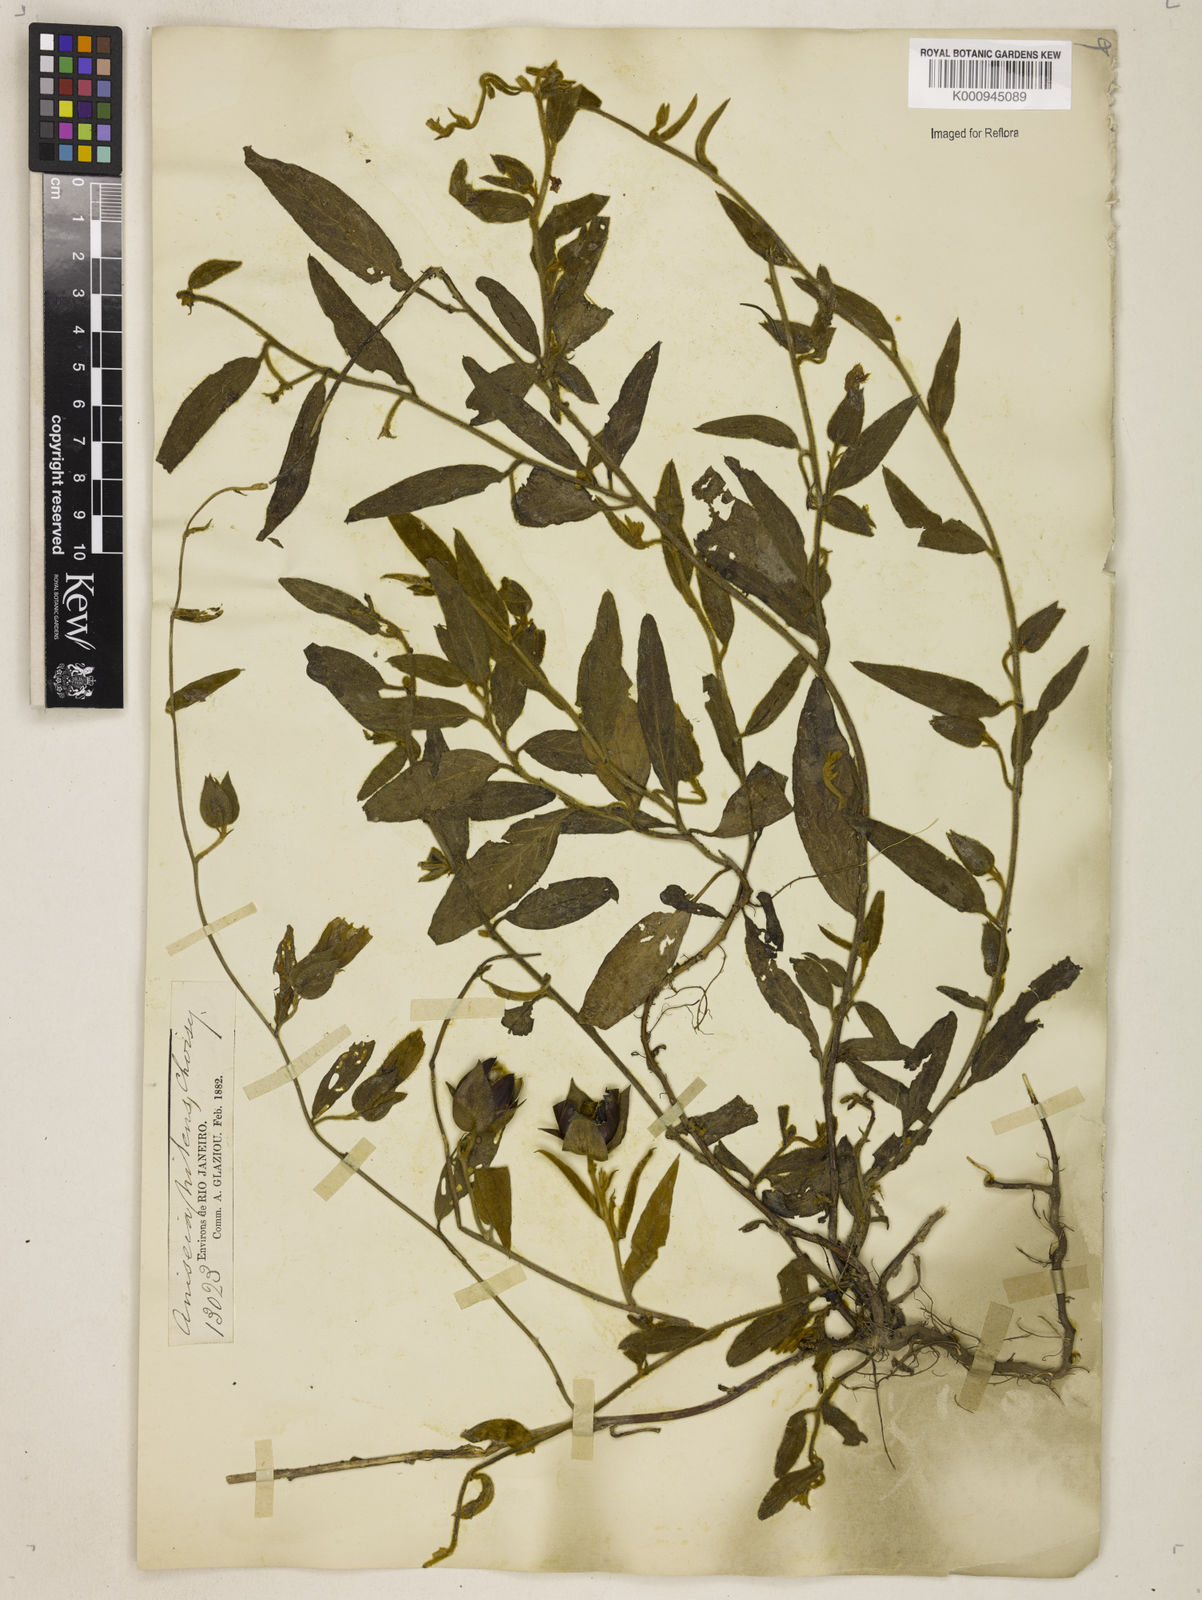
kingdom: Plantae
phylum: Tracheophyta
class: Magnoliopsida
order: Solanales
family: Convolvulaceae
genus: Aniseia
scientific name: Aniseia martinicensis
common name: Kulayadambu
